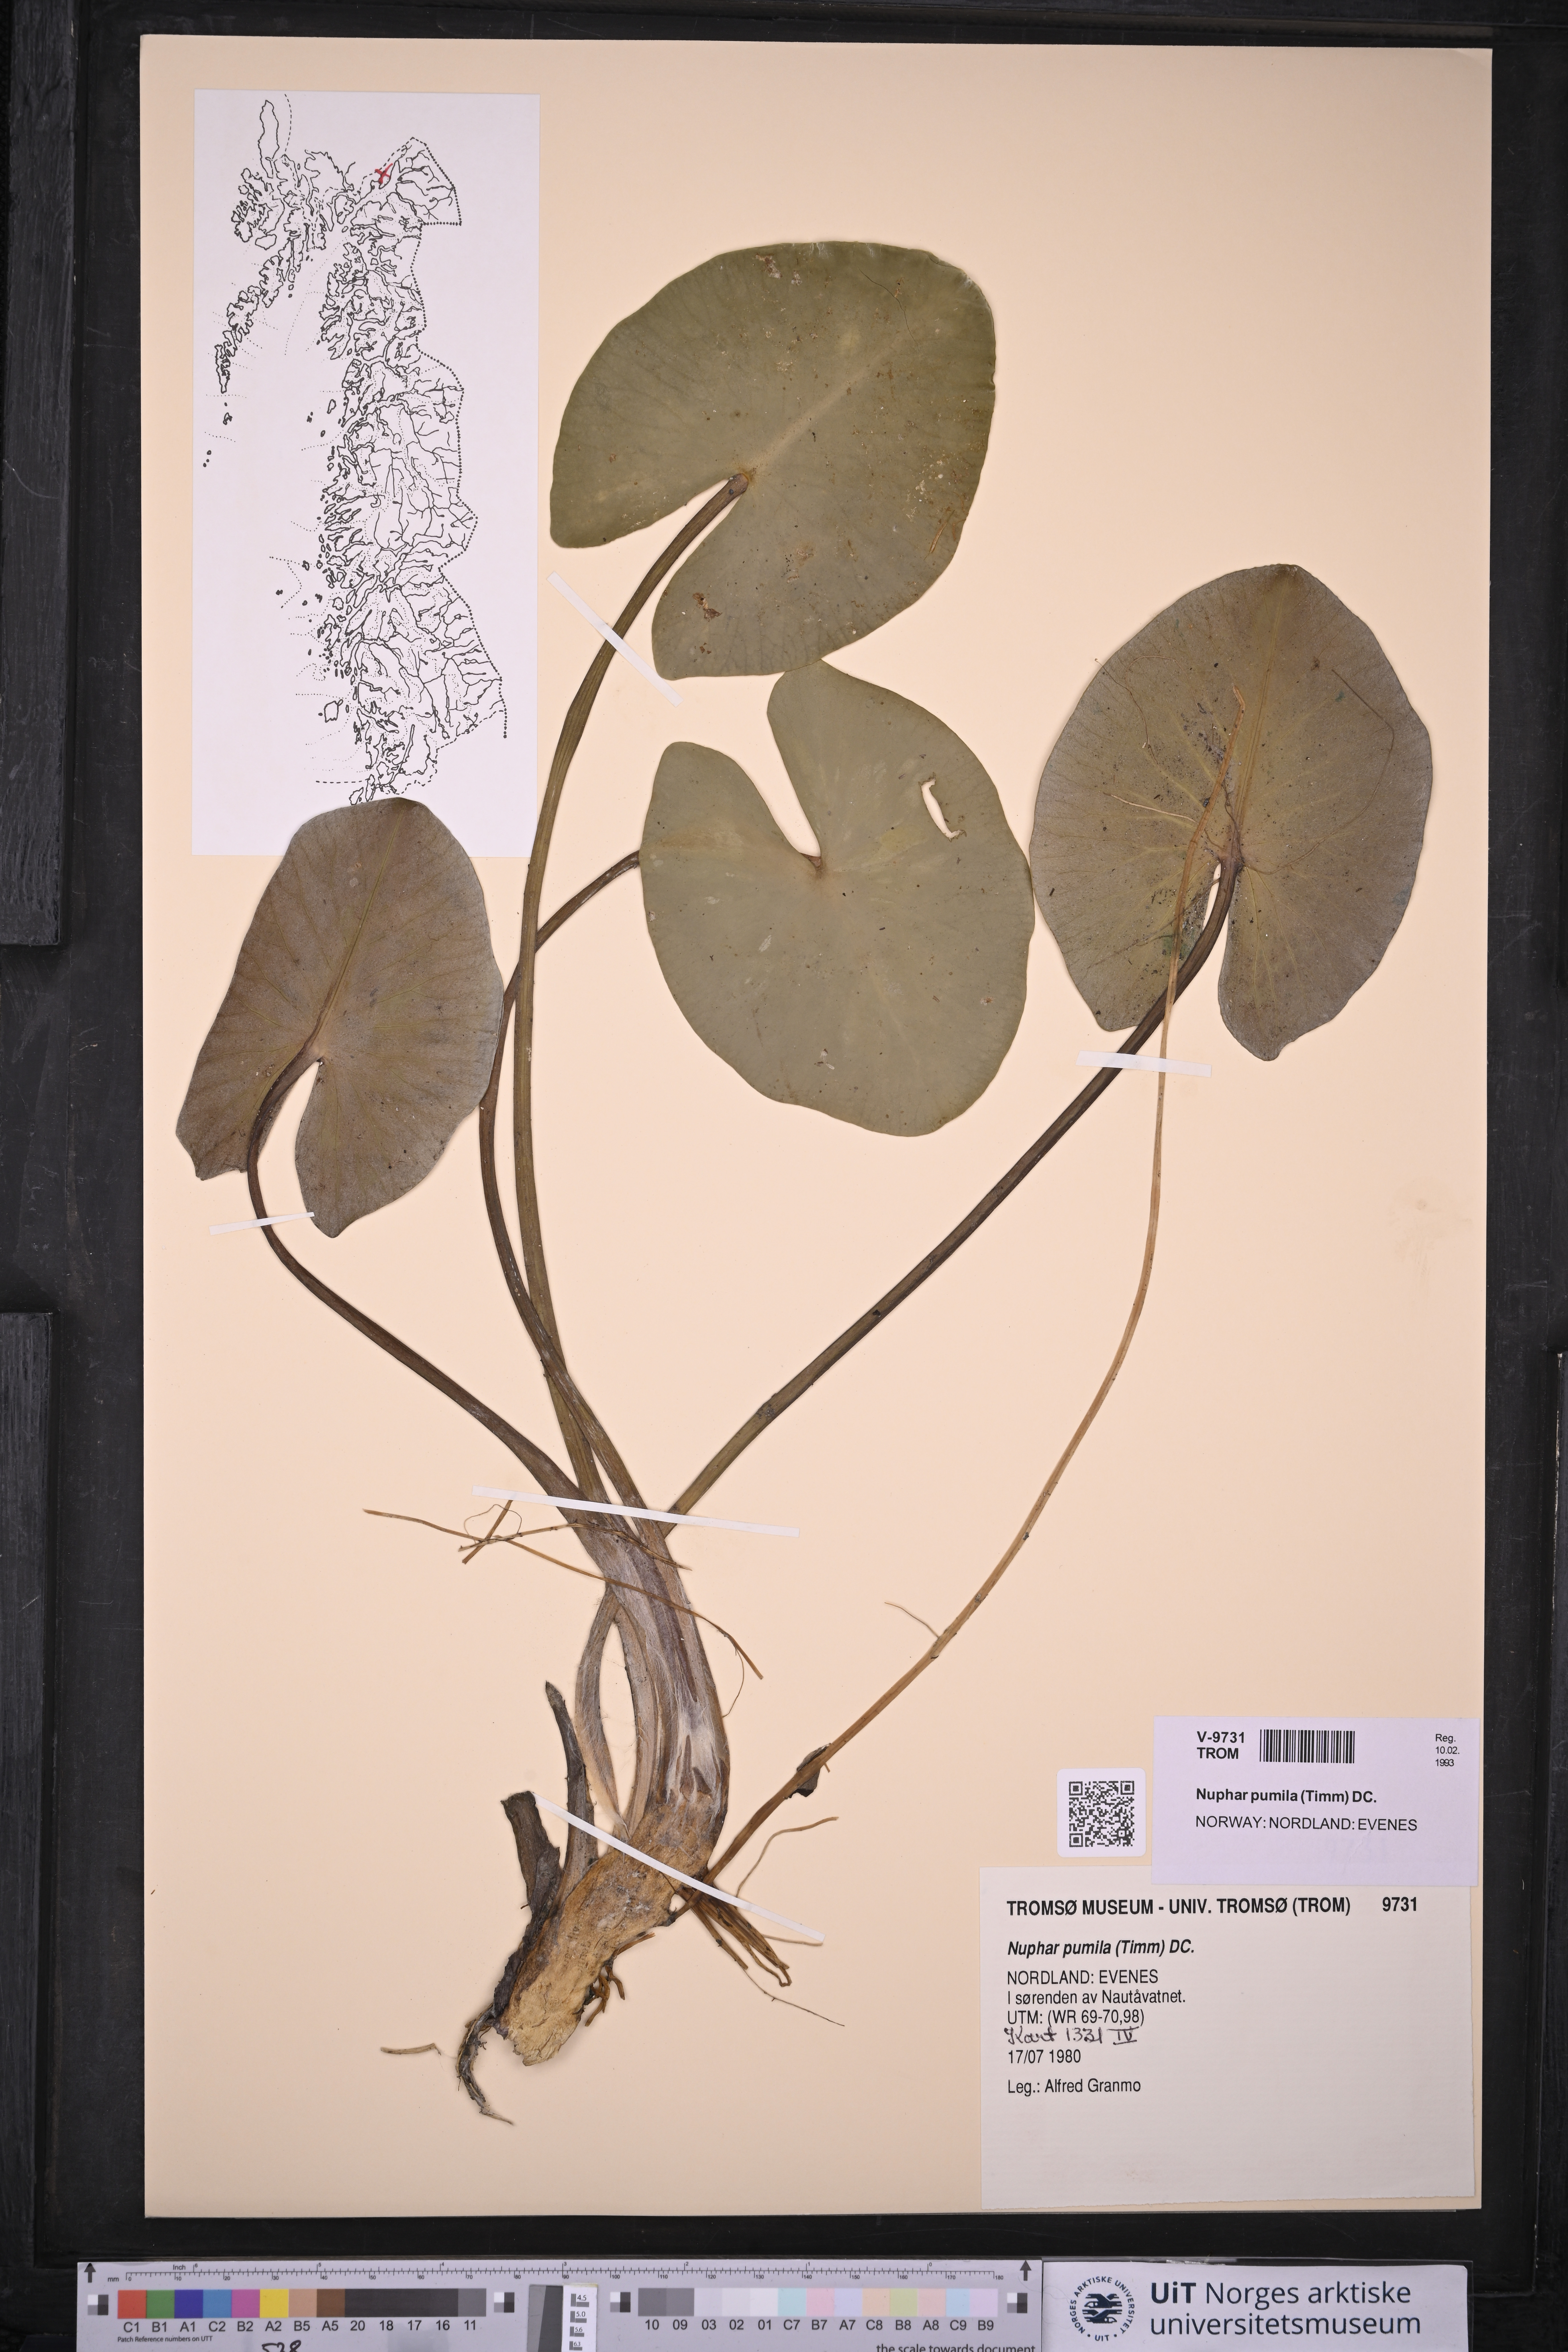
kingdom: Plantae
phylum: Tracheophyta
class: Magnoliopsida
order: Nymphaeales
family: Nymphaeaceae
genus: Nuphar
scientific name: Nuphar pumila
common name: Least water-lily
